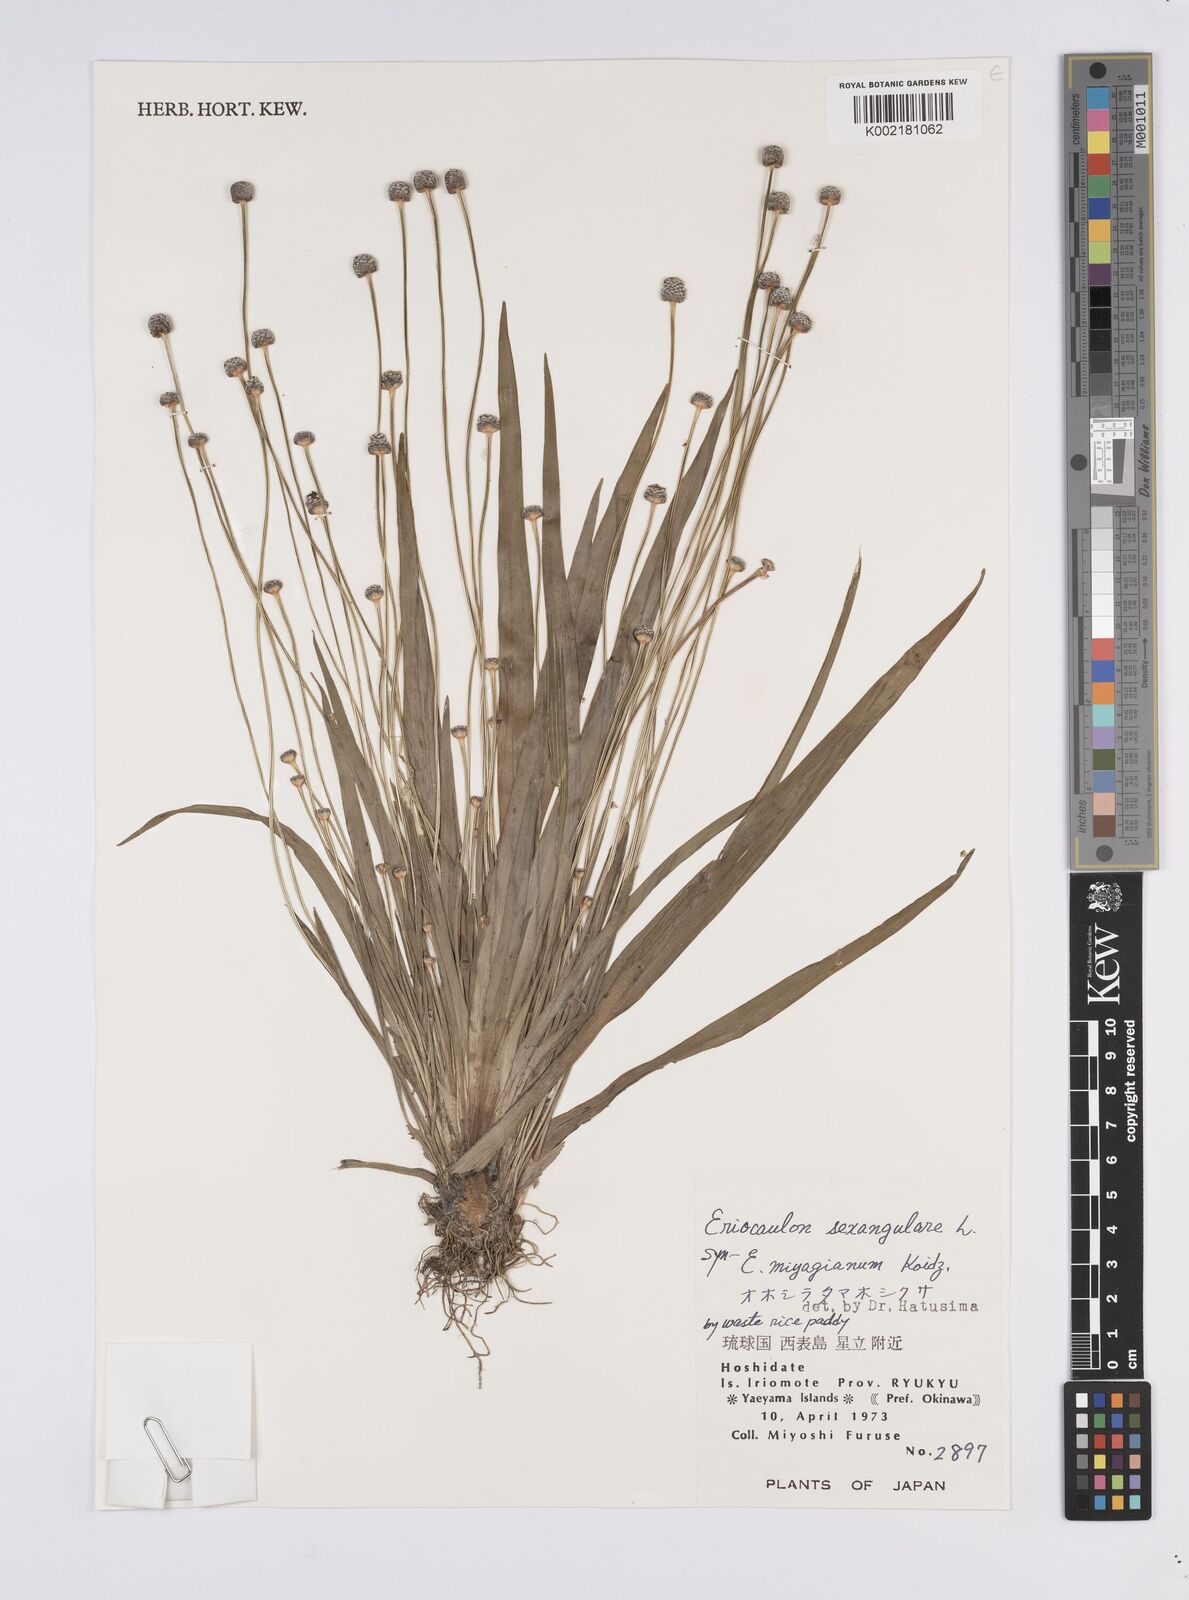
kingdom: Plantae
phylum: Tracheophyta
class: Liliopsida
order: Poales
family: Eriocaulaceae
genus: Eriocaulon
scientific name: Eriocaulon sexangulare
